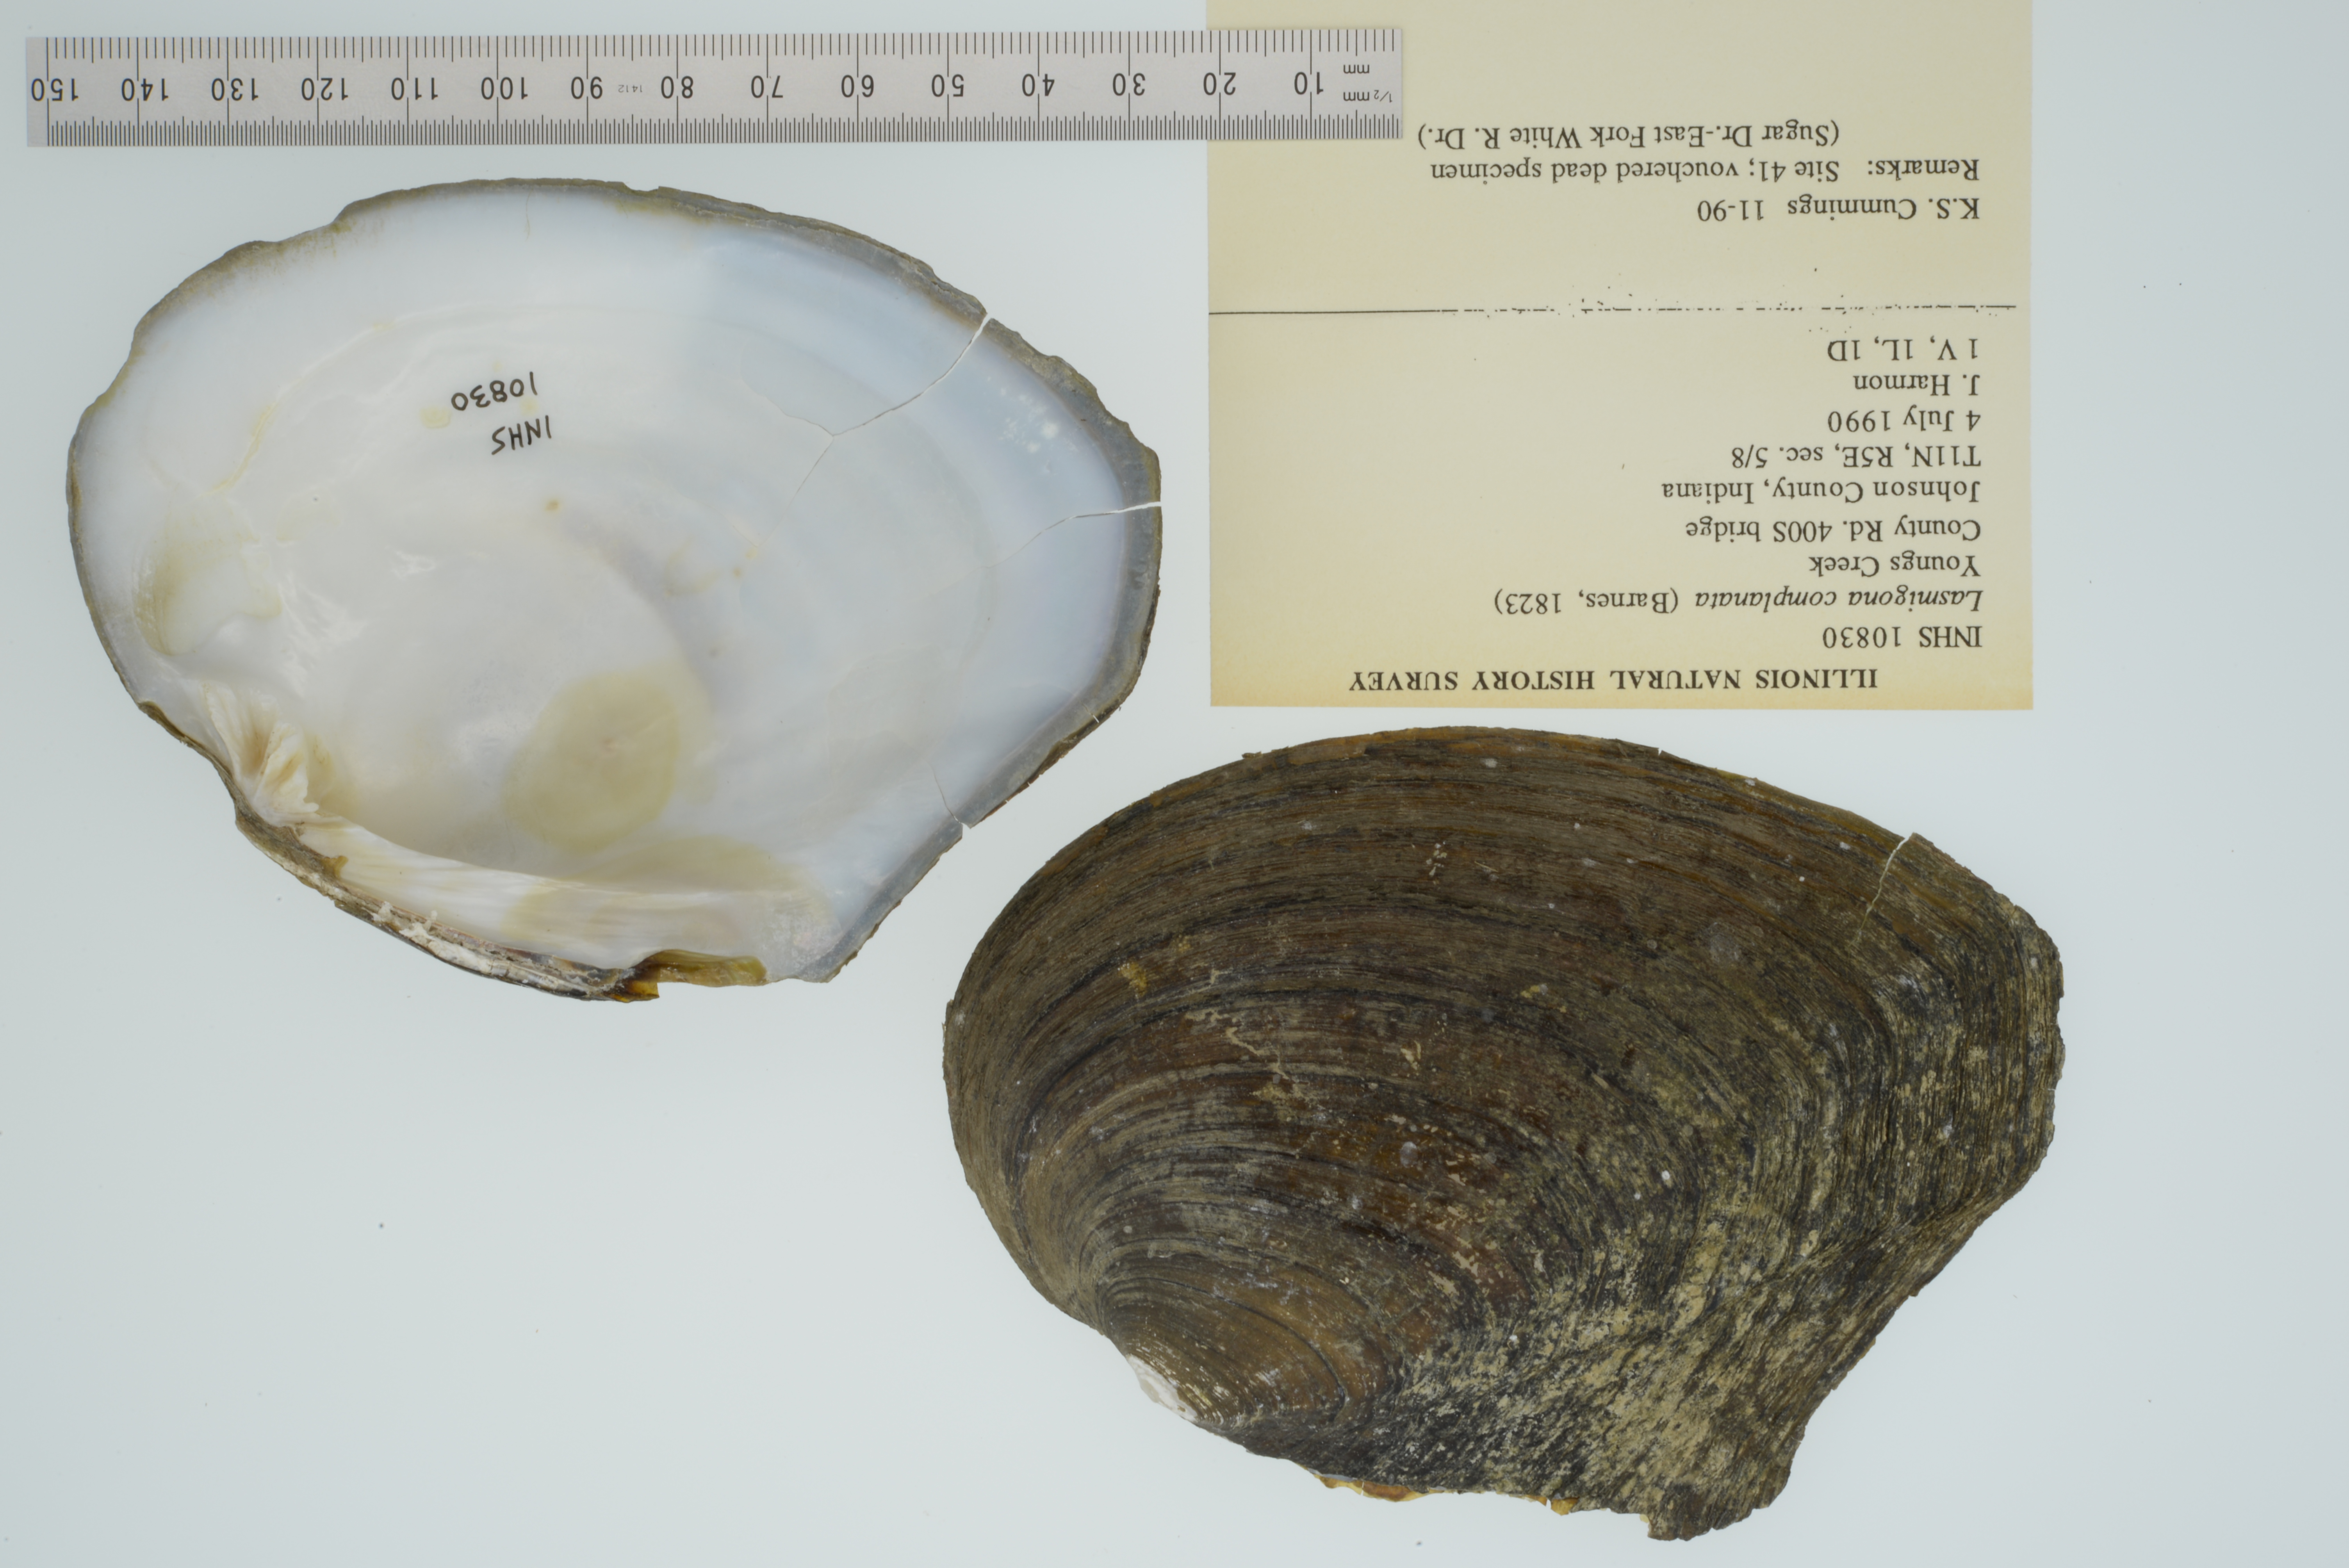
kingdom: Animalia
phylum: Mollusca
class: Bivalvia
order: Unionida
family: Unionidae
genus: Lasmigona
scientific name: Lasmigona complanata
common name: White heelsplitter
